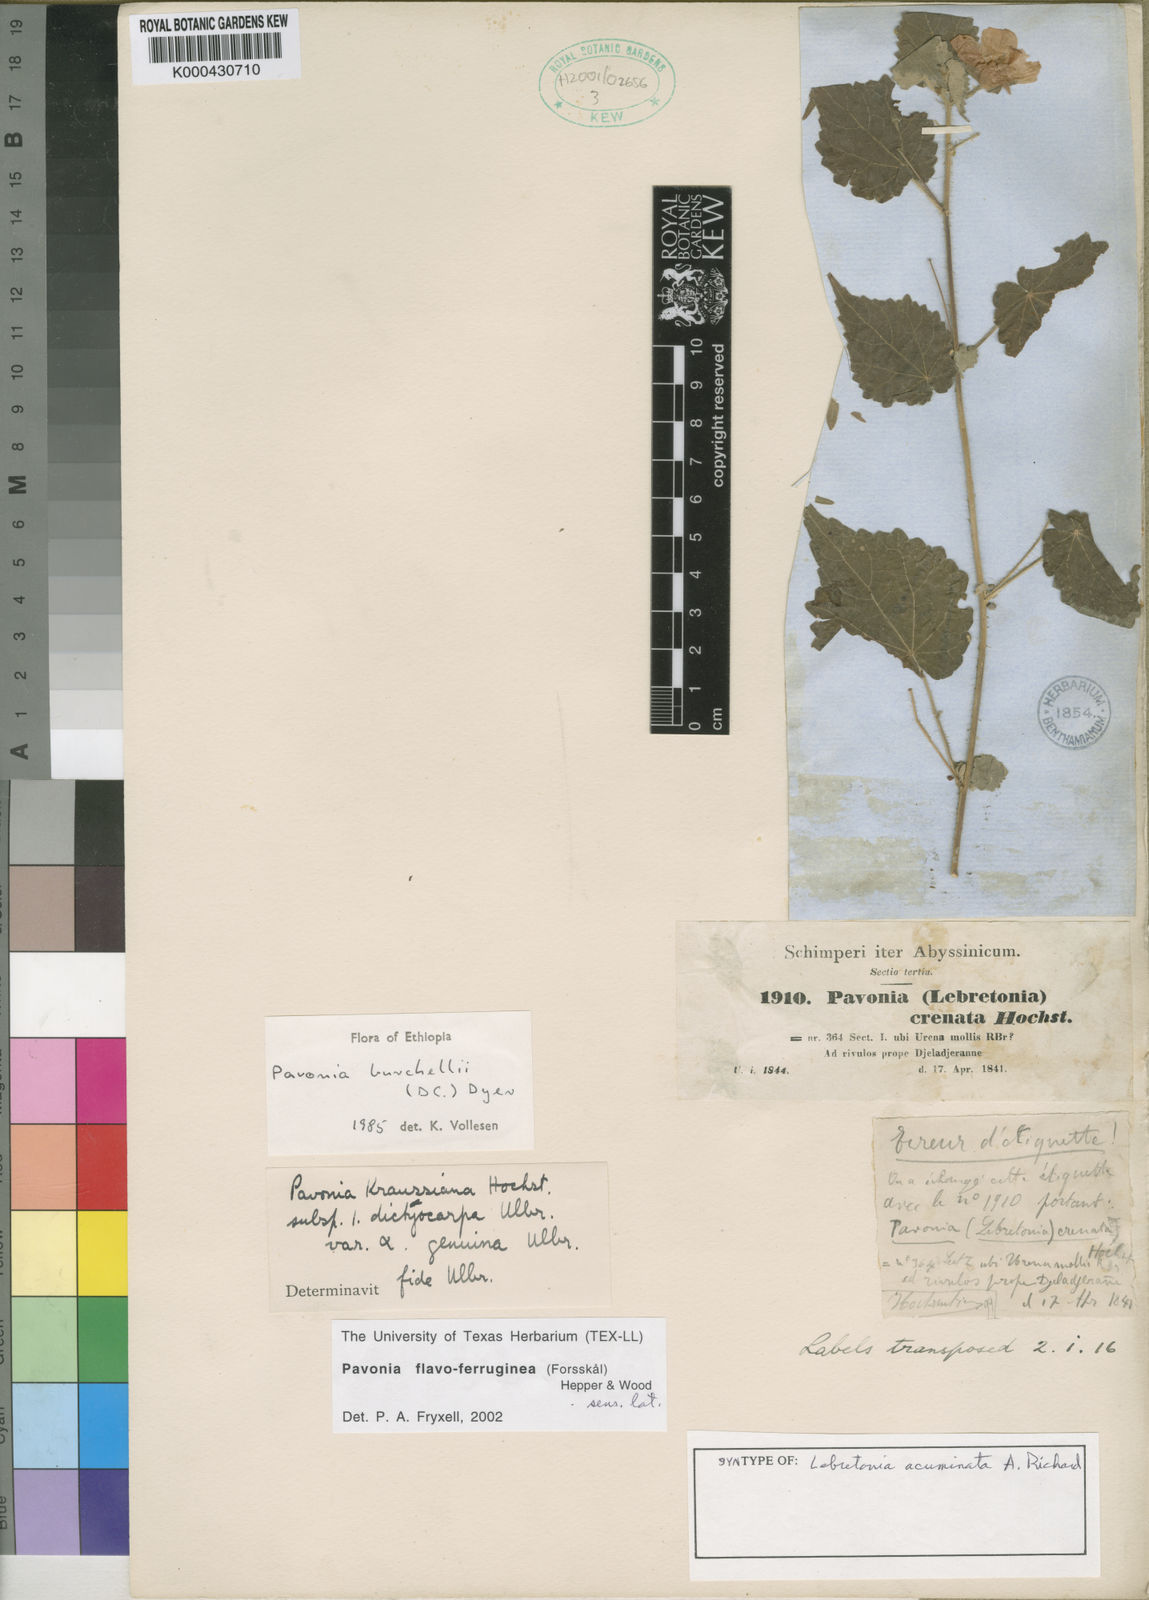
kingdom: Plantae
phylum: Tracheophyta
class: Magnoliopsida
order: Malvales
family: Malvaceae
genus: Pavonia
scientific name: Pavonia burchellii
